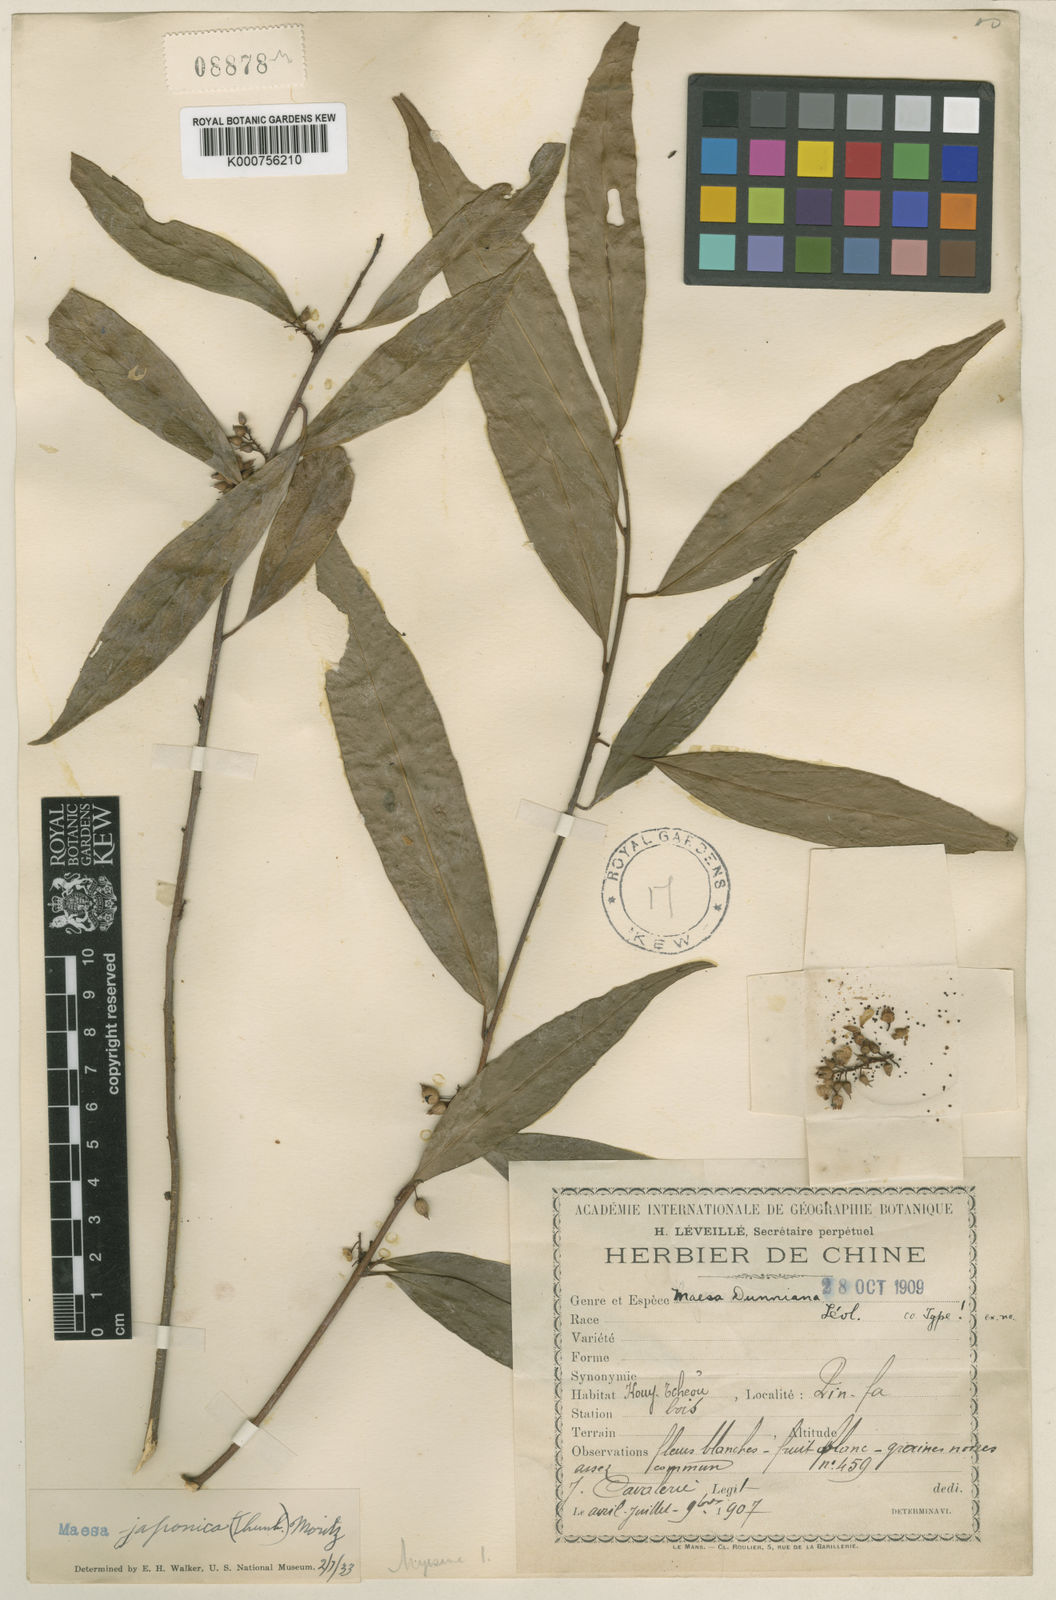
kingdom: Plantae
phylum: Tracheophyta
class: Magnoliopsida
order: Ericales
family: Primulaceae
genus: Maesa
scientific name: Maesa japonica
